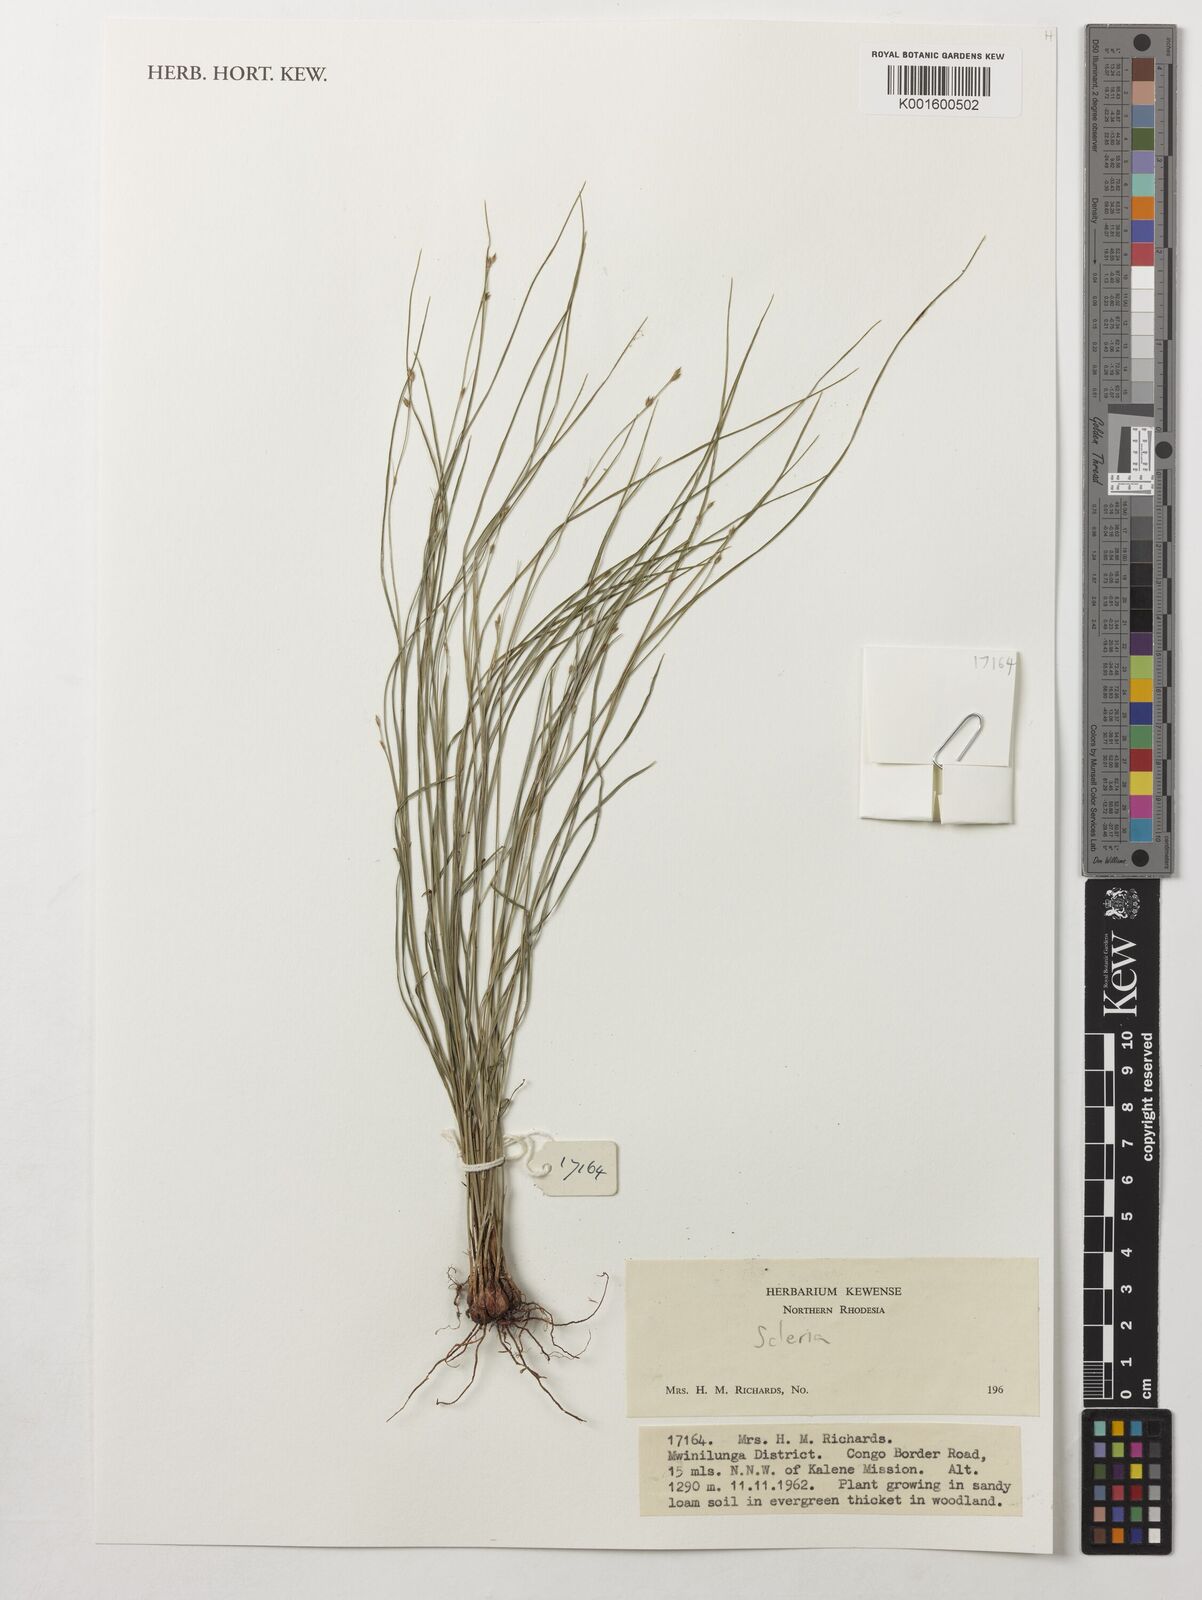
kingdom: Plantae
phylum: Tracheophyta
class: Liliopsida
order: Poales
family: Cyperaceae
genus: Scleria
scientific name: Scleria
